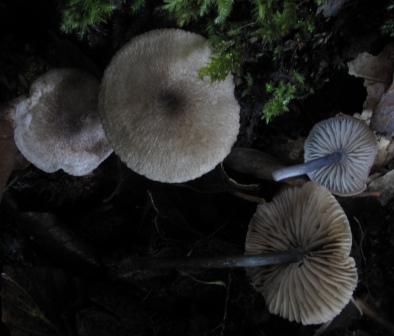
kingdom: Fungi
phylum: Basidiomycota
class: Agaricomycetes
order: Agaricales
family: Entolomataceae
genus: Entoloma
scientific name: Entoloma placidum
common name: bøge-rødblad
